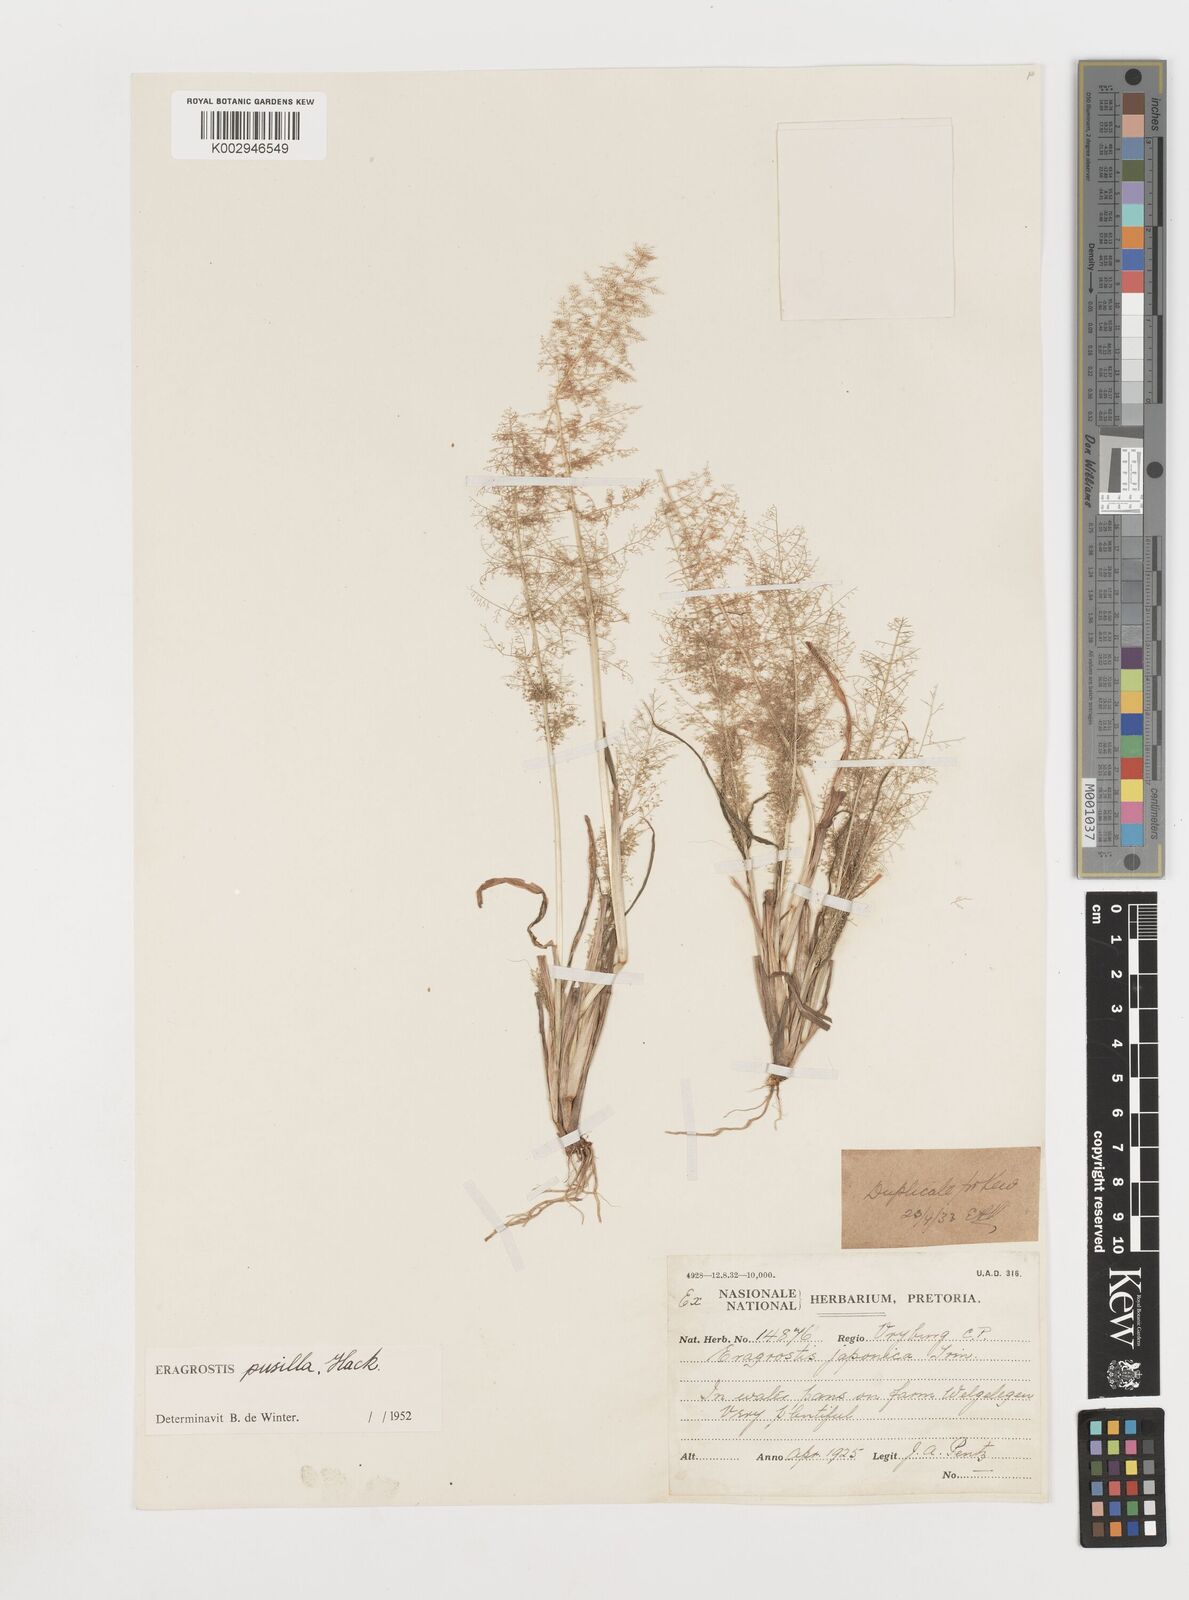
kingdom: Plantae
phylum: Tracheophyta
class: Liliopsida
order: Poales
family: Poaceae
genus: Eragrostis
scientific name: Eragrostis pusilla
